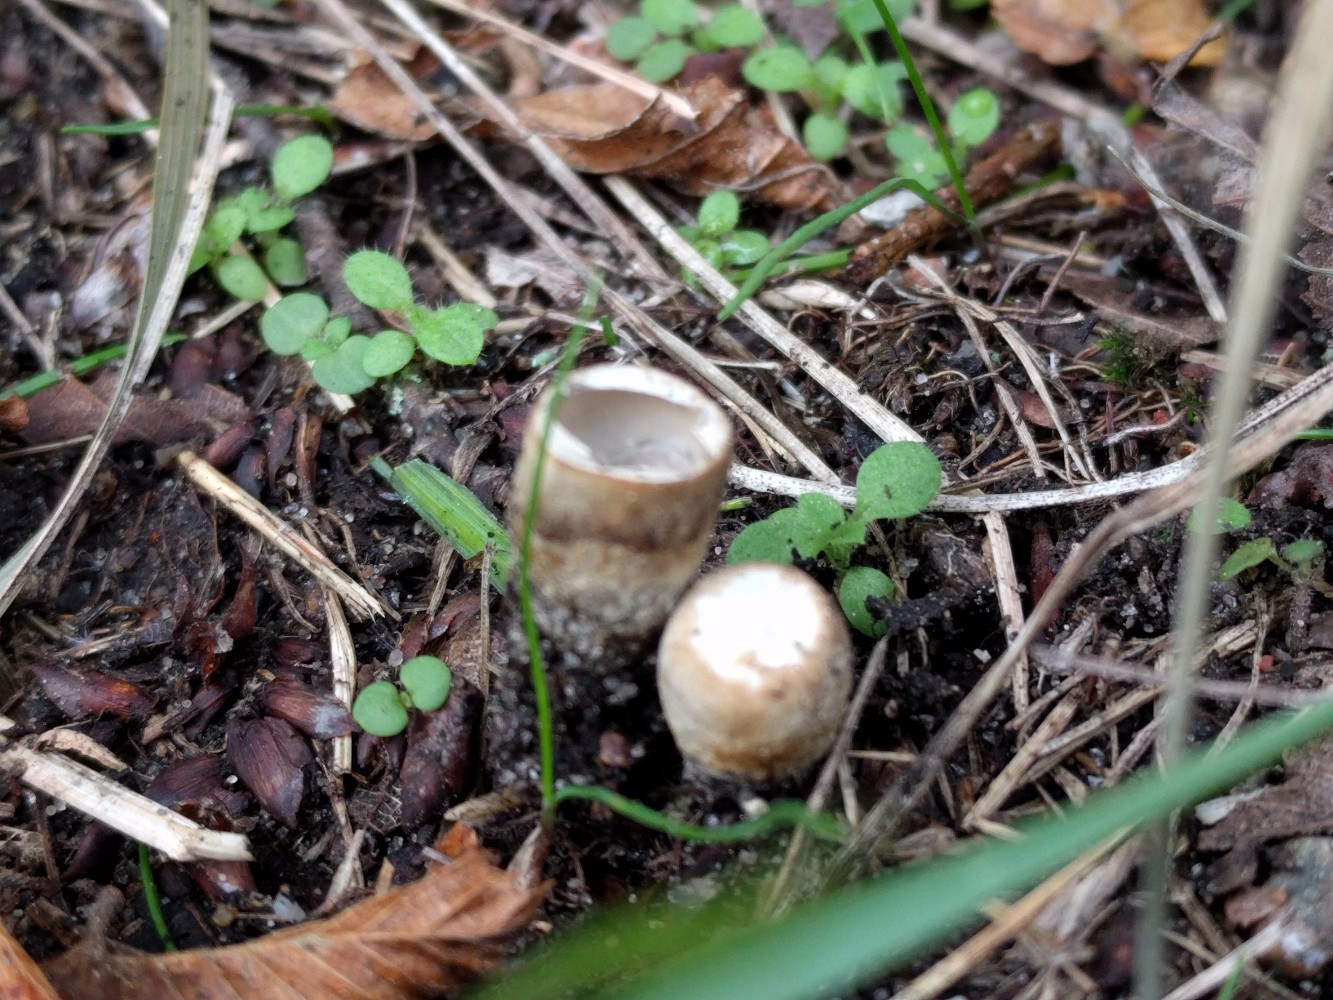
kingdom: Fungi
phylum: Basidiomycota
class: Agaricomycetes
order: Agaricales
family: Agaricaceae
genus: Cyathus
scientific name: Cyathus olla
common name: klokke-redesvamp
